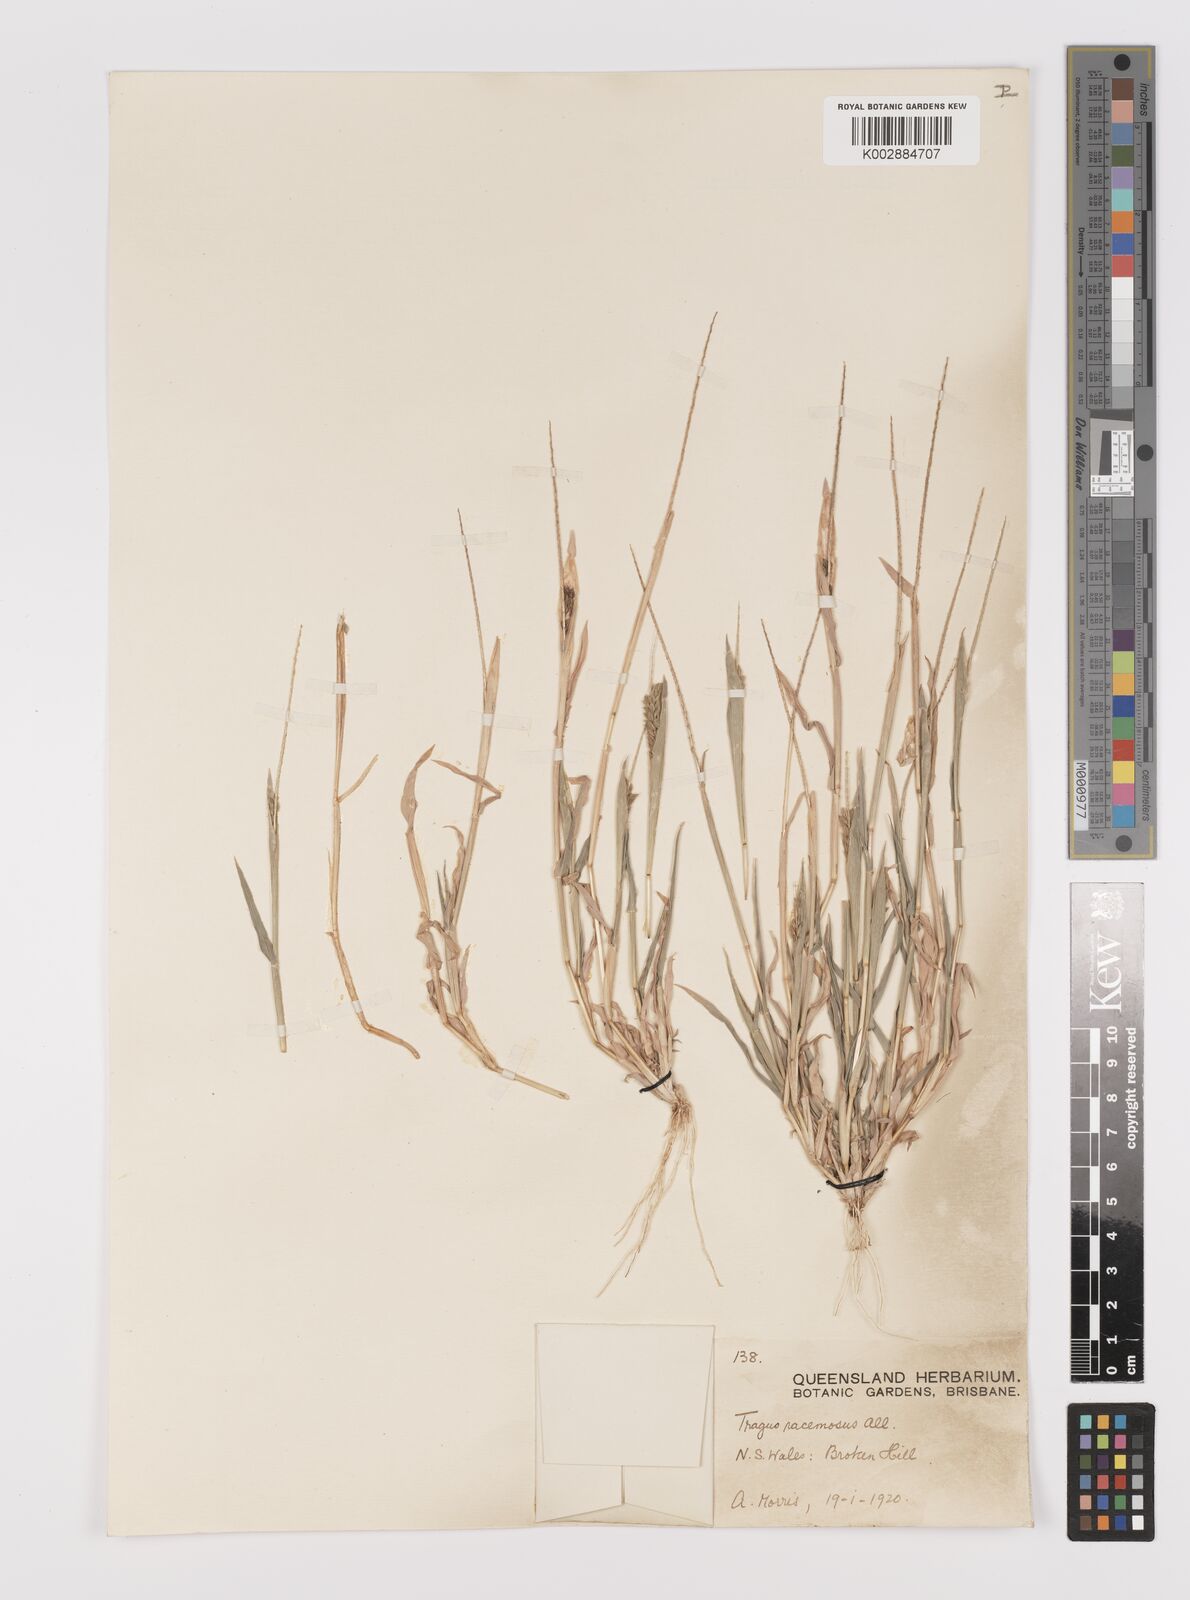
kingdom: Plantae
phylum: Tracheophyta
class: Liliopsida
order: Poales
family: Poaceae
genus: Tragus
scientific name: Tragus australianus
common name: Australian bur-grass
